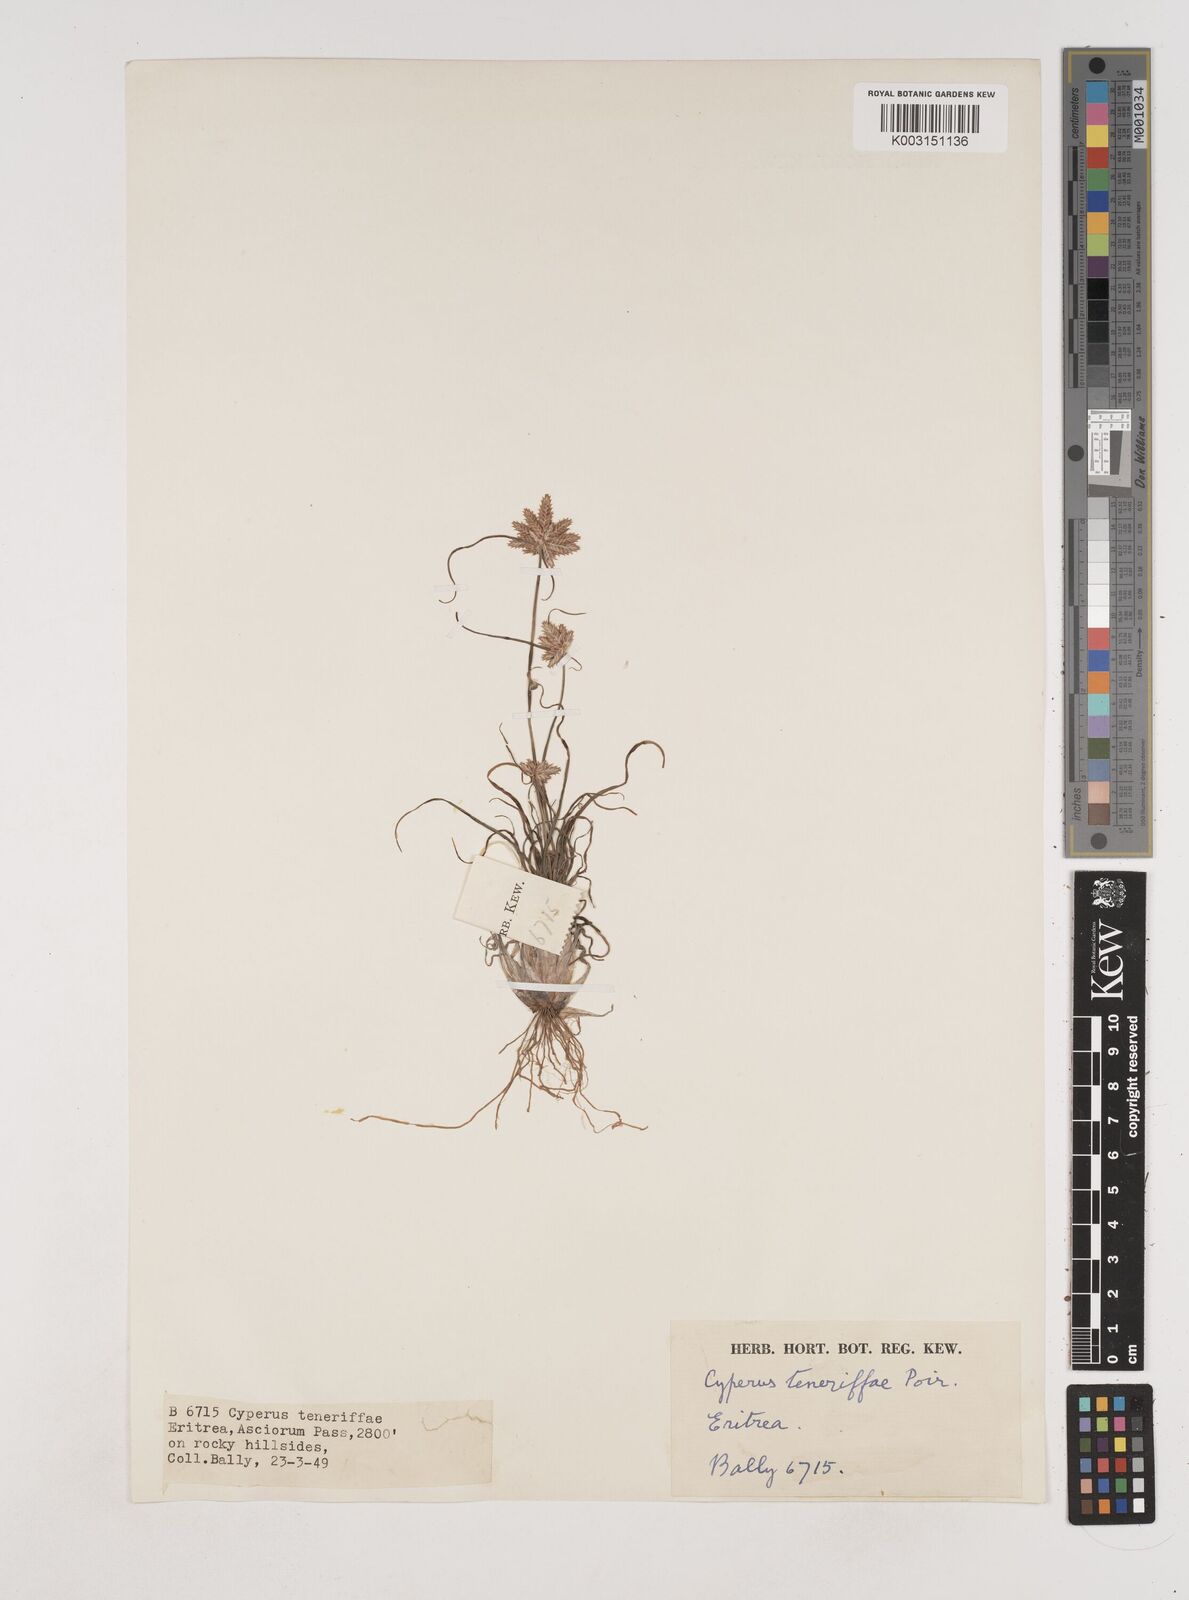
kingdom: Plantae
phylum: Tracheophyta
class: Liliopsida
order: Poales
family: Cyperaceae
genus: Cyperus
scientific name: Cyperus rubicundus
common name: Coco-grass
